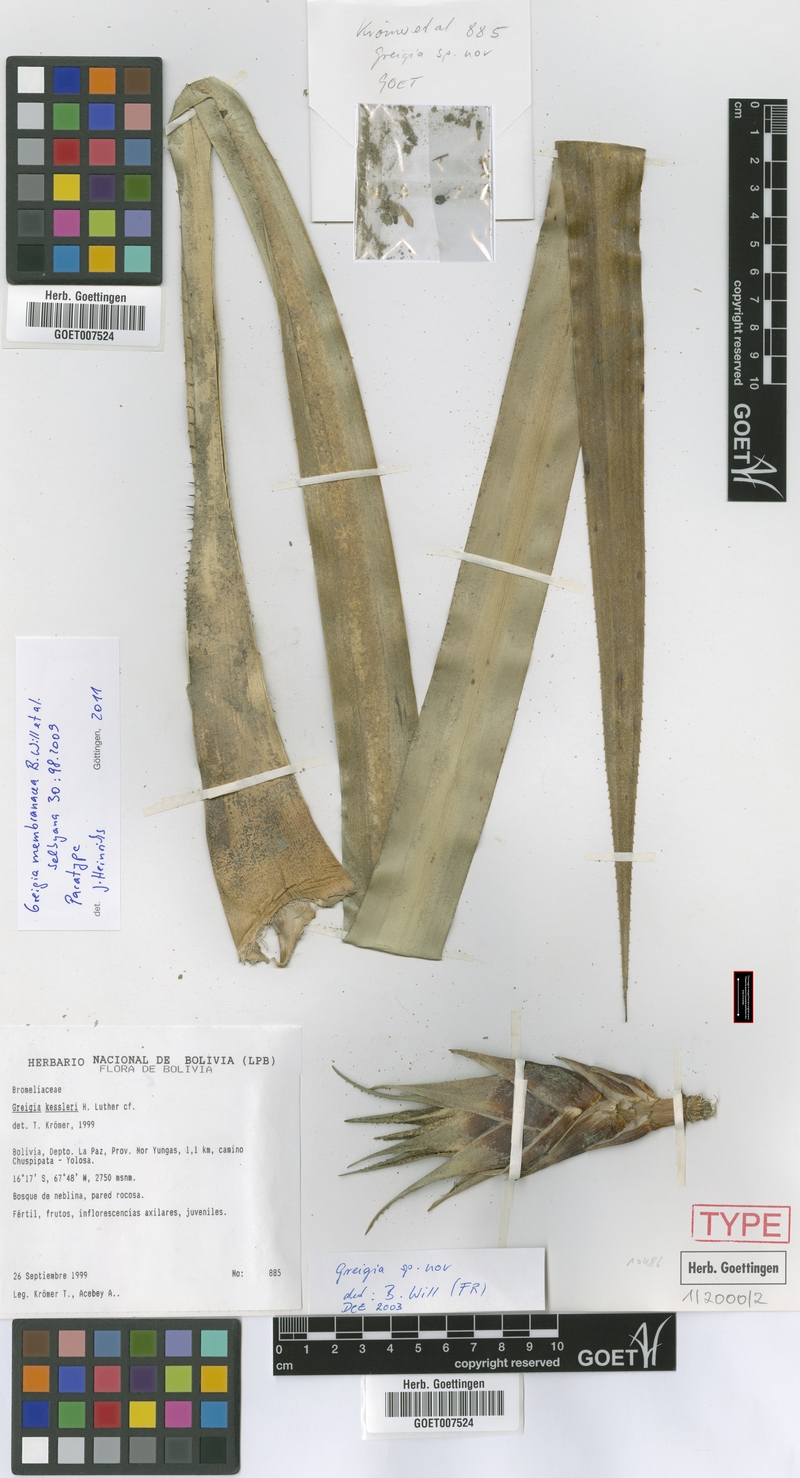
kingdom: Plantae
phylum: Tracheophyta
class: Liliopsida
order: Poales
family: Bromeliaceae
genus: Greigia
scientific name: Greigia membranacea
